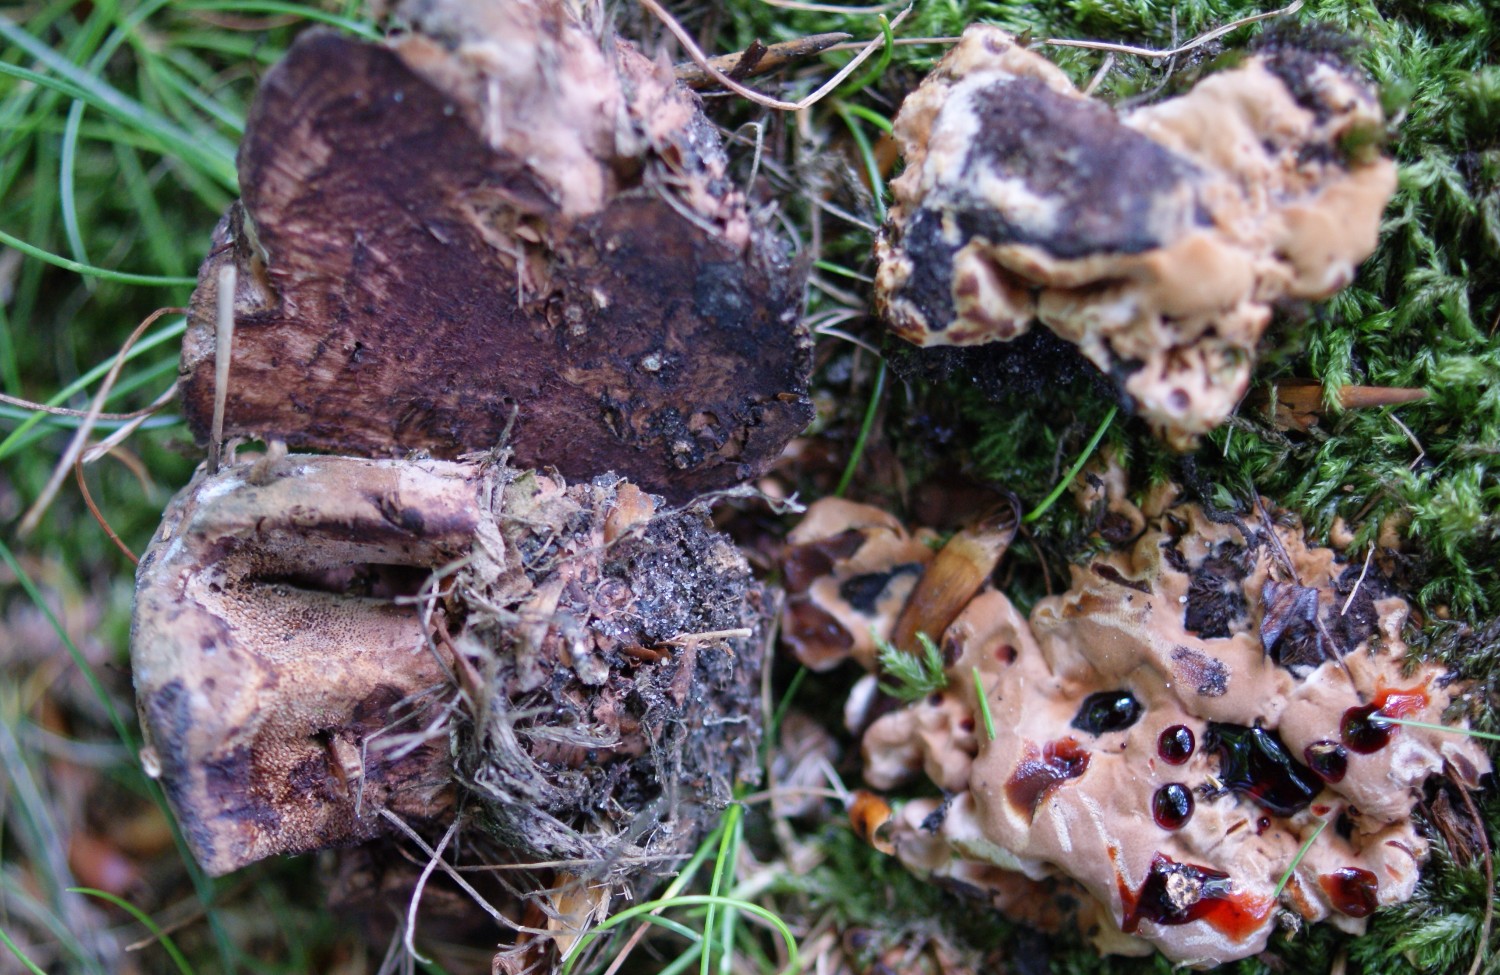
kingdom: Fungi
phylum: Basidiomycota
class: Agaricomycetes
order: Thelephorales
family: Bankeraceae
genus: Hydnellum
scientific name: Hydnellum concrescens
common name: Zoned tooth
